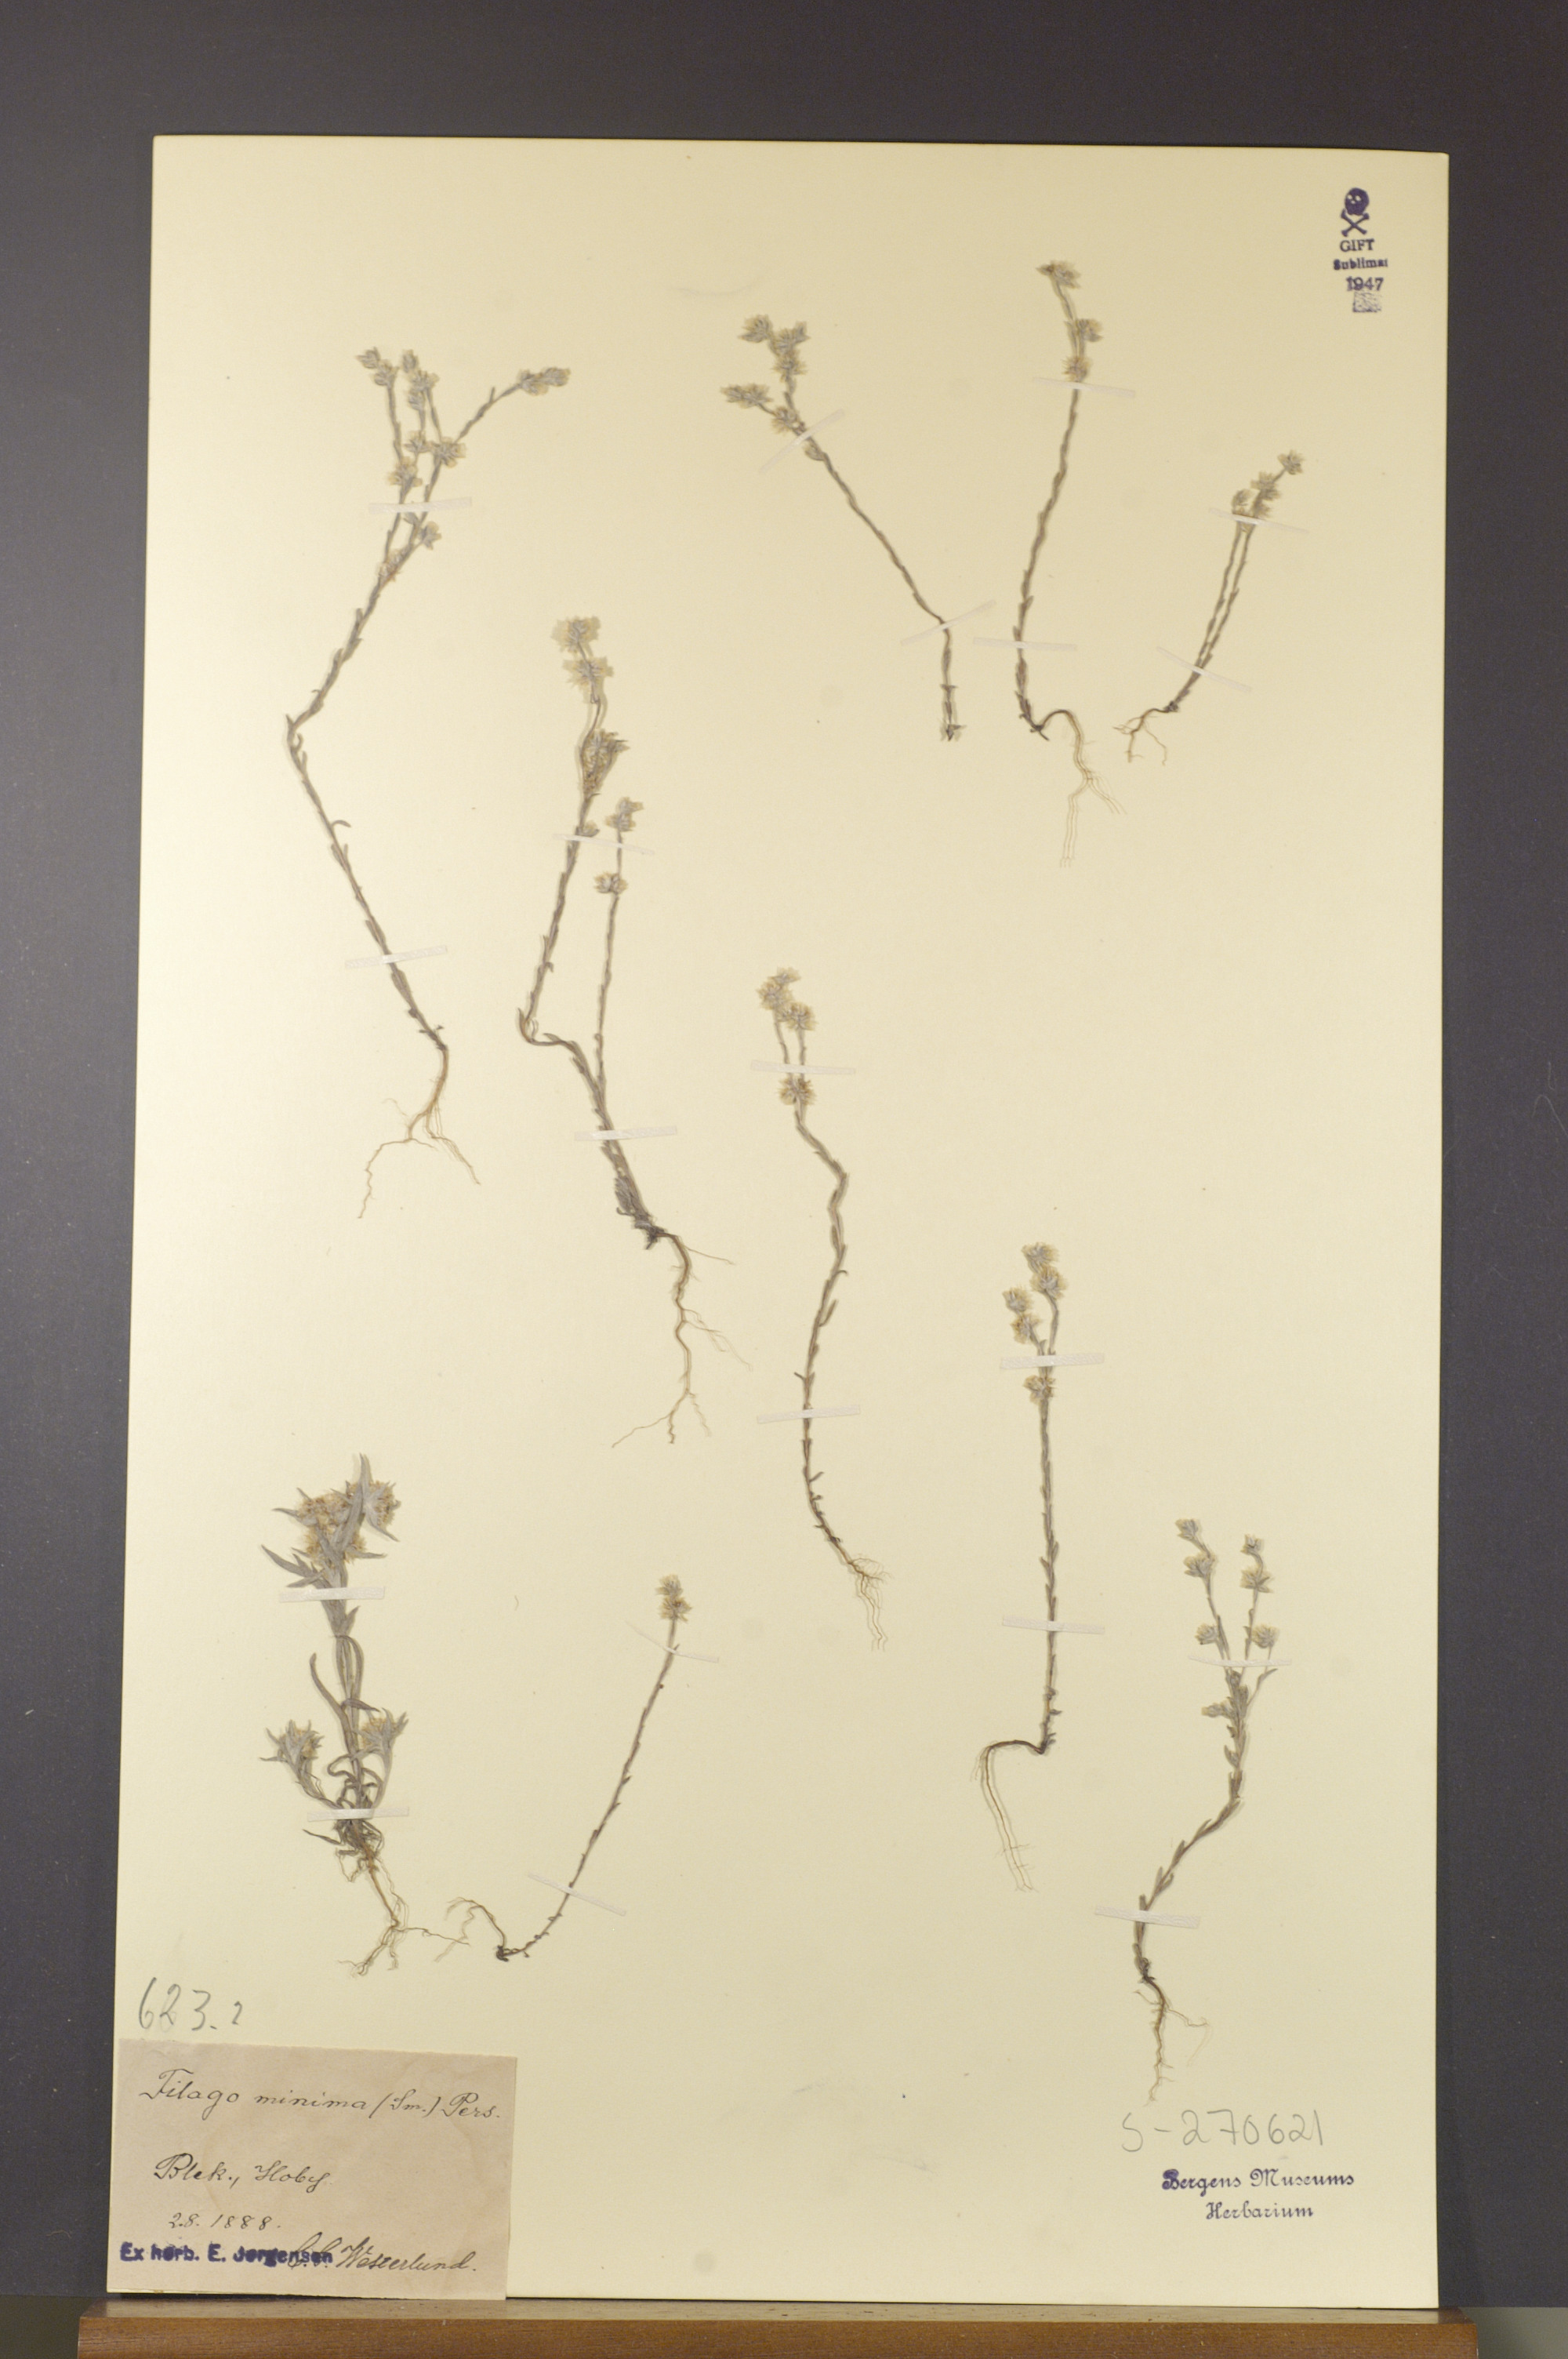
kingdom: Plantae
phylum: Tracheophyta
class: Magnoliopsida
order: Asterales
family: Asteraceae
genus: Logfia
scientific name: Logfia minima
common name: Little cottonrose
